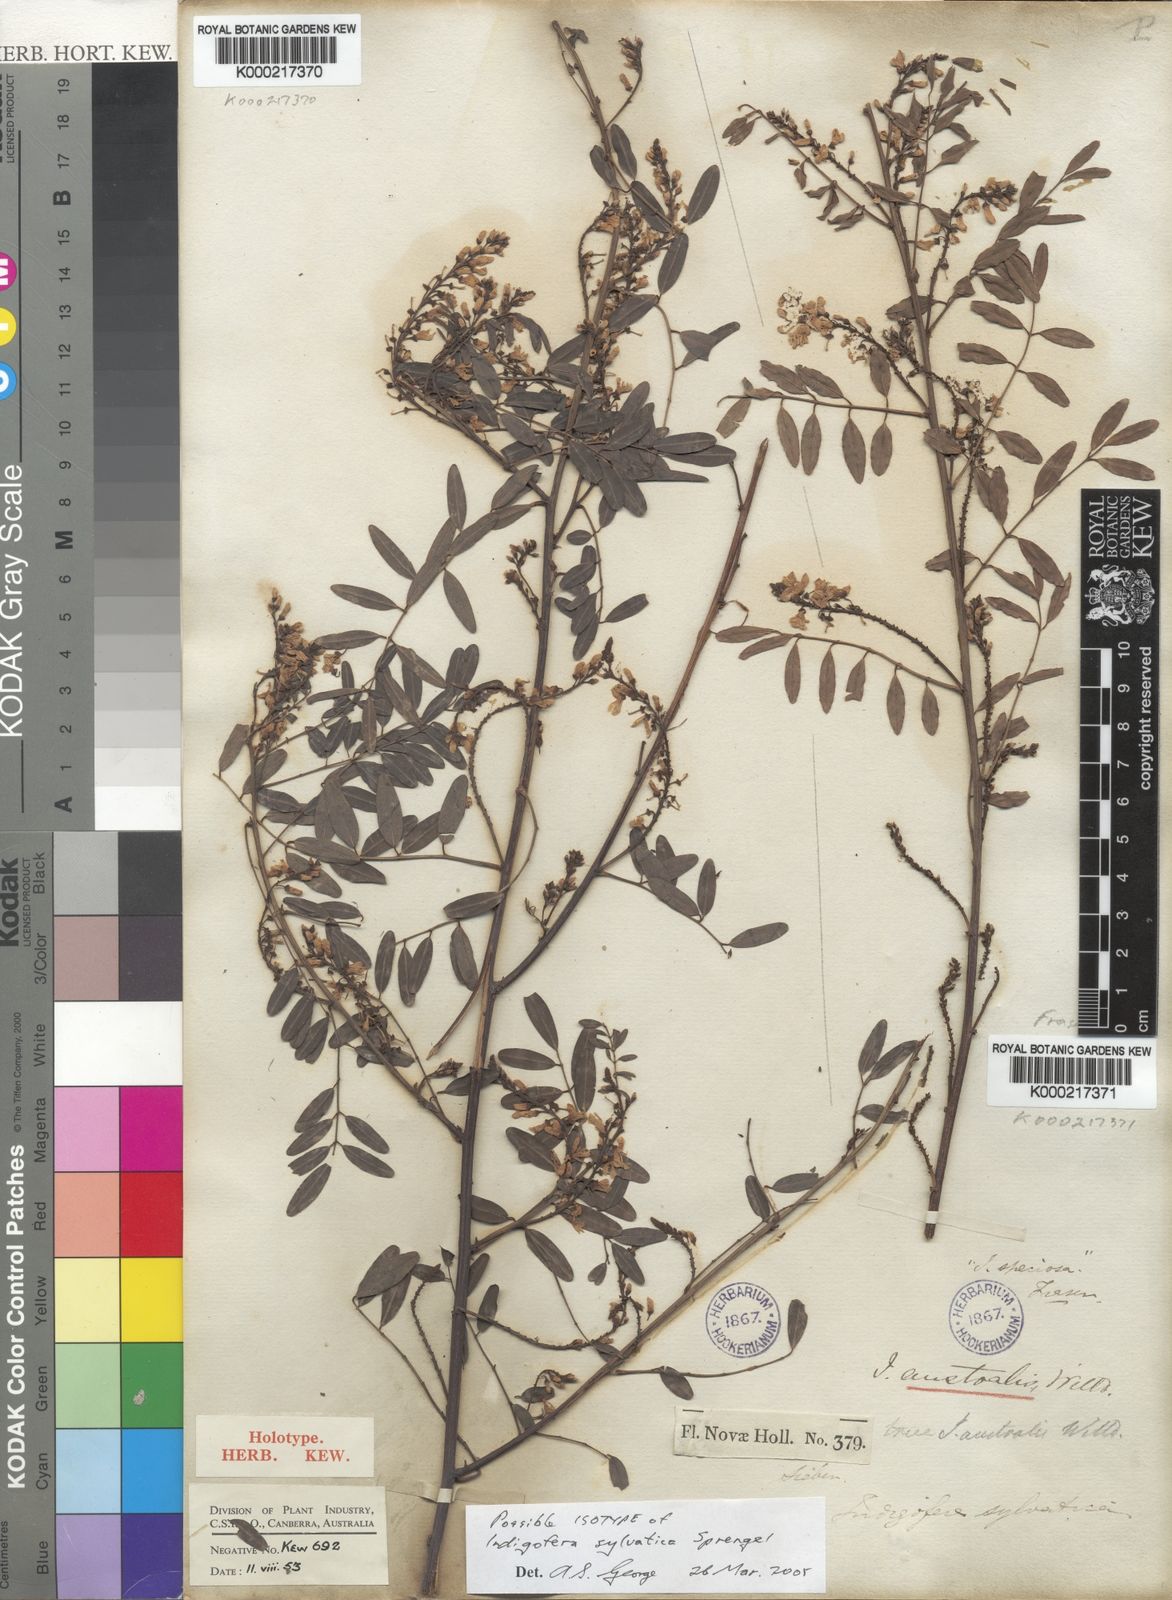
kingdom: Plantae
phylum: Tracheophyta
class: Magnoliopsida
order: Fabales
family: Fabaceae
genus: Indigofera
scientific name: Indigofera australis
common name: Australian indigo
